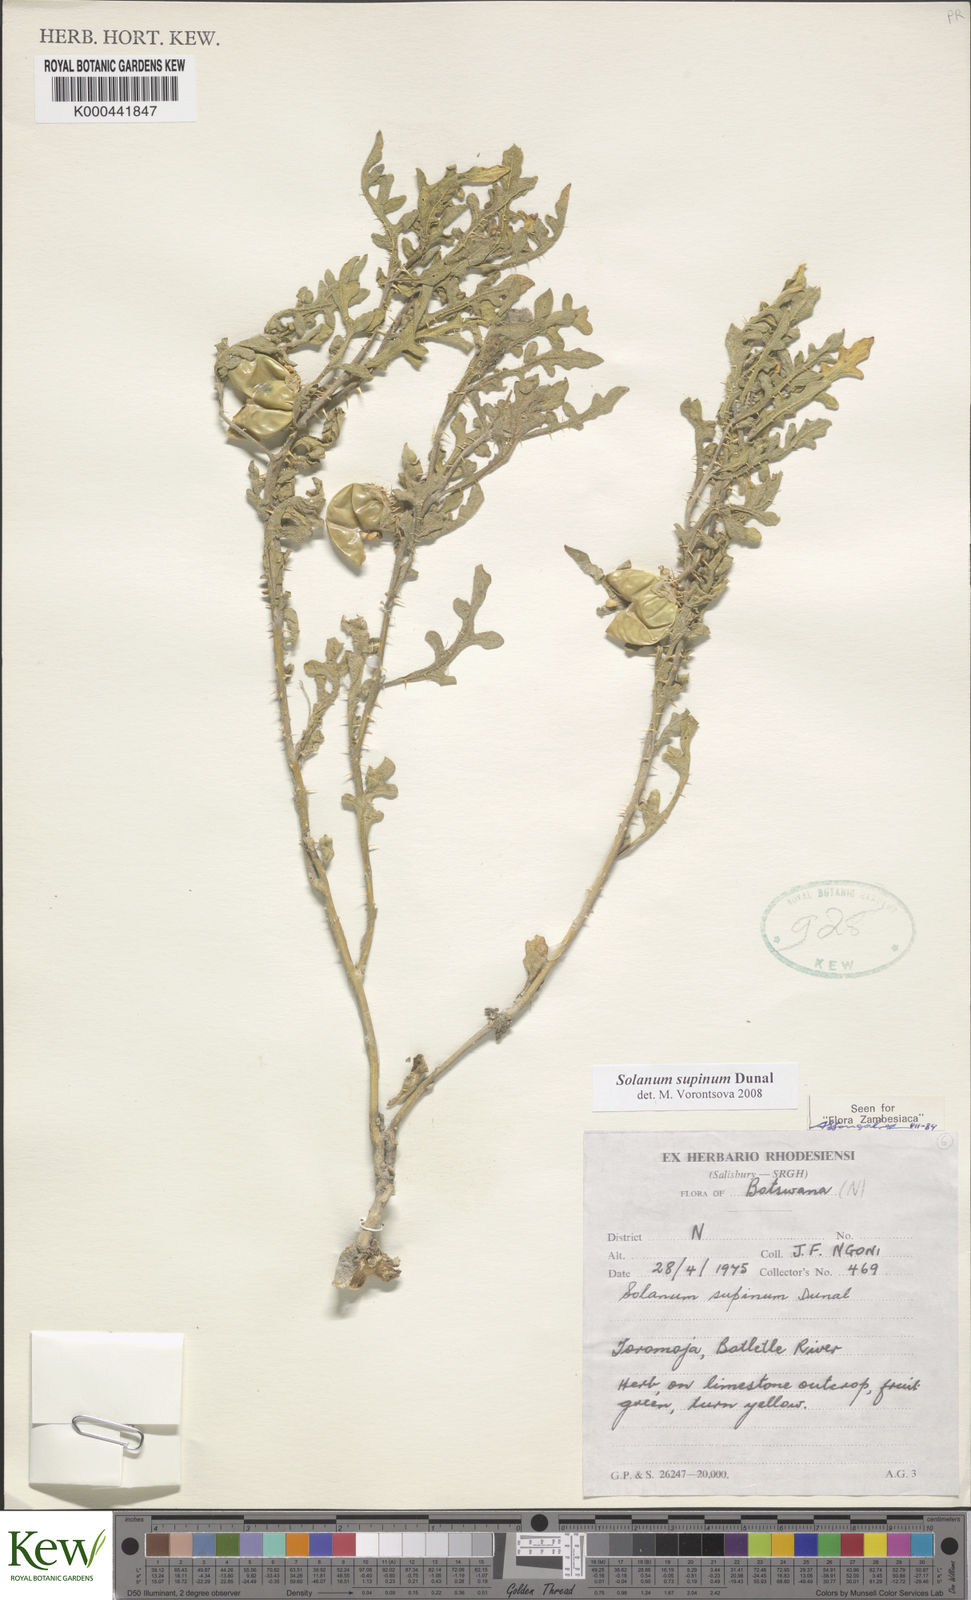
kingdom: Plantae
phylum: Tracheophyta
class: Magnoliopsida
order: Solanales
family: Solanaceae
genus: Solanum
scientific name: Solanum supinum
